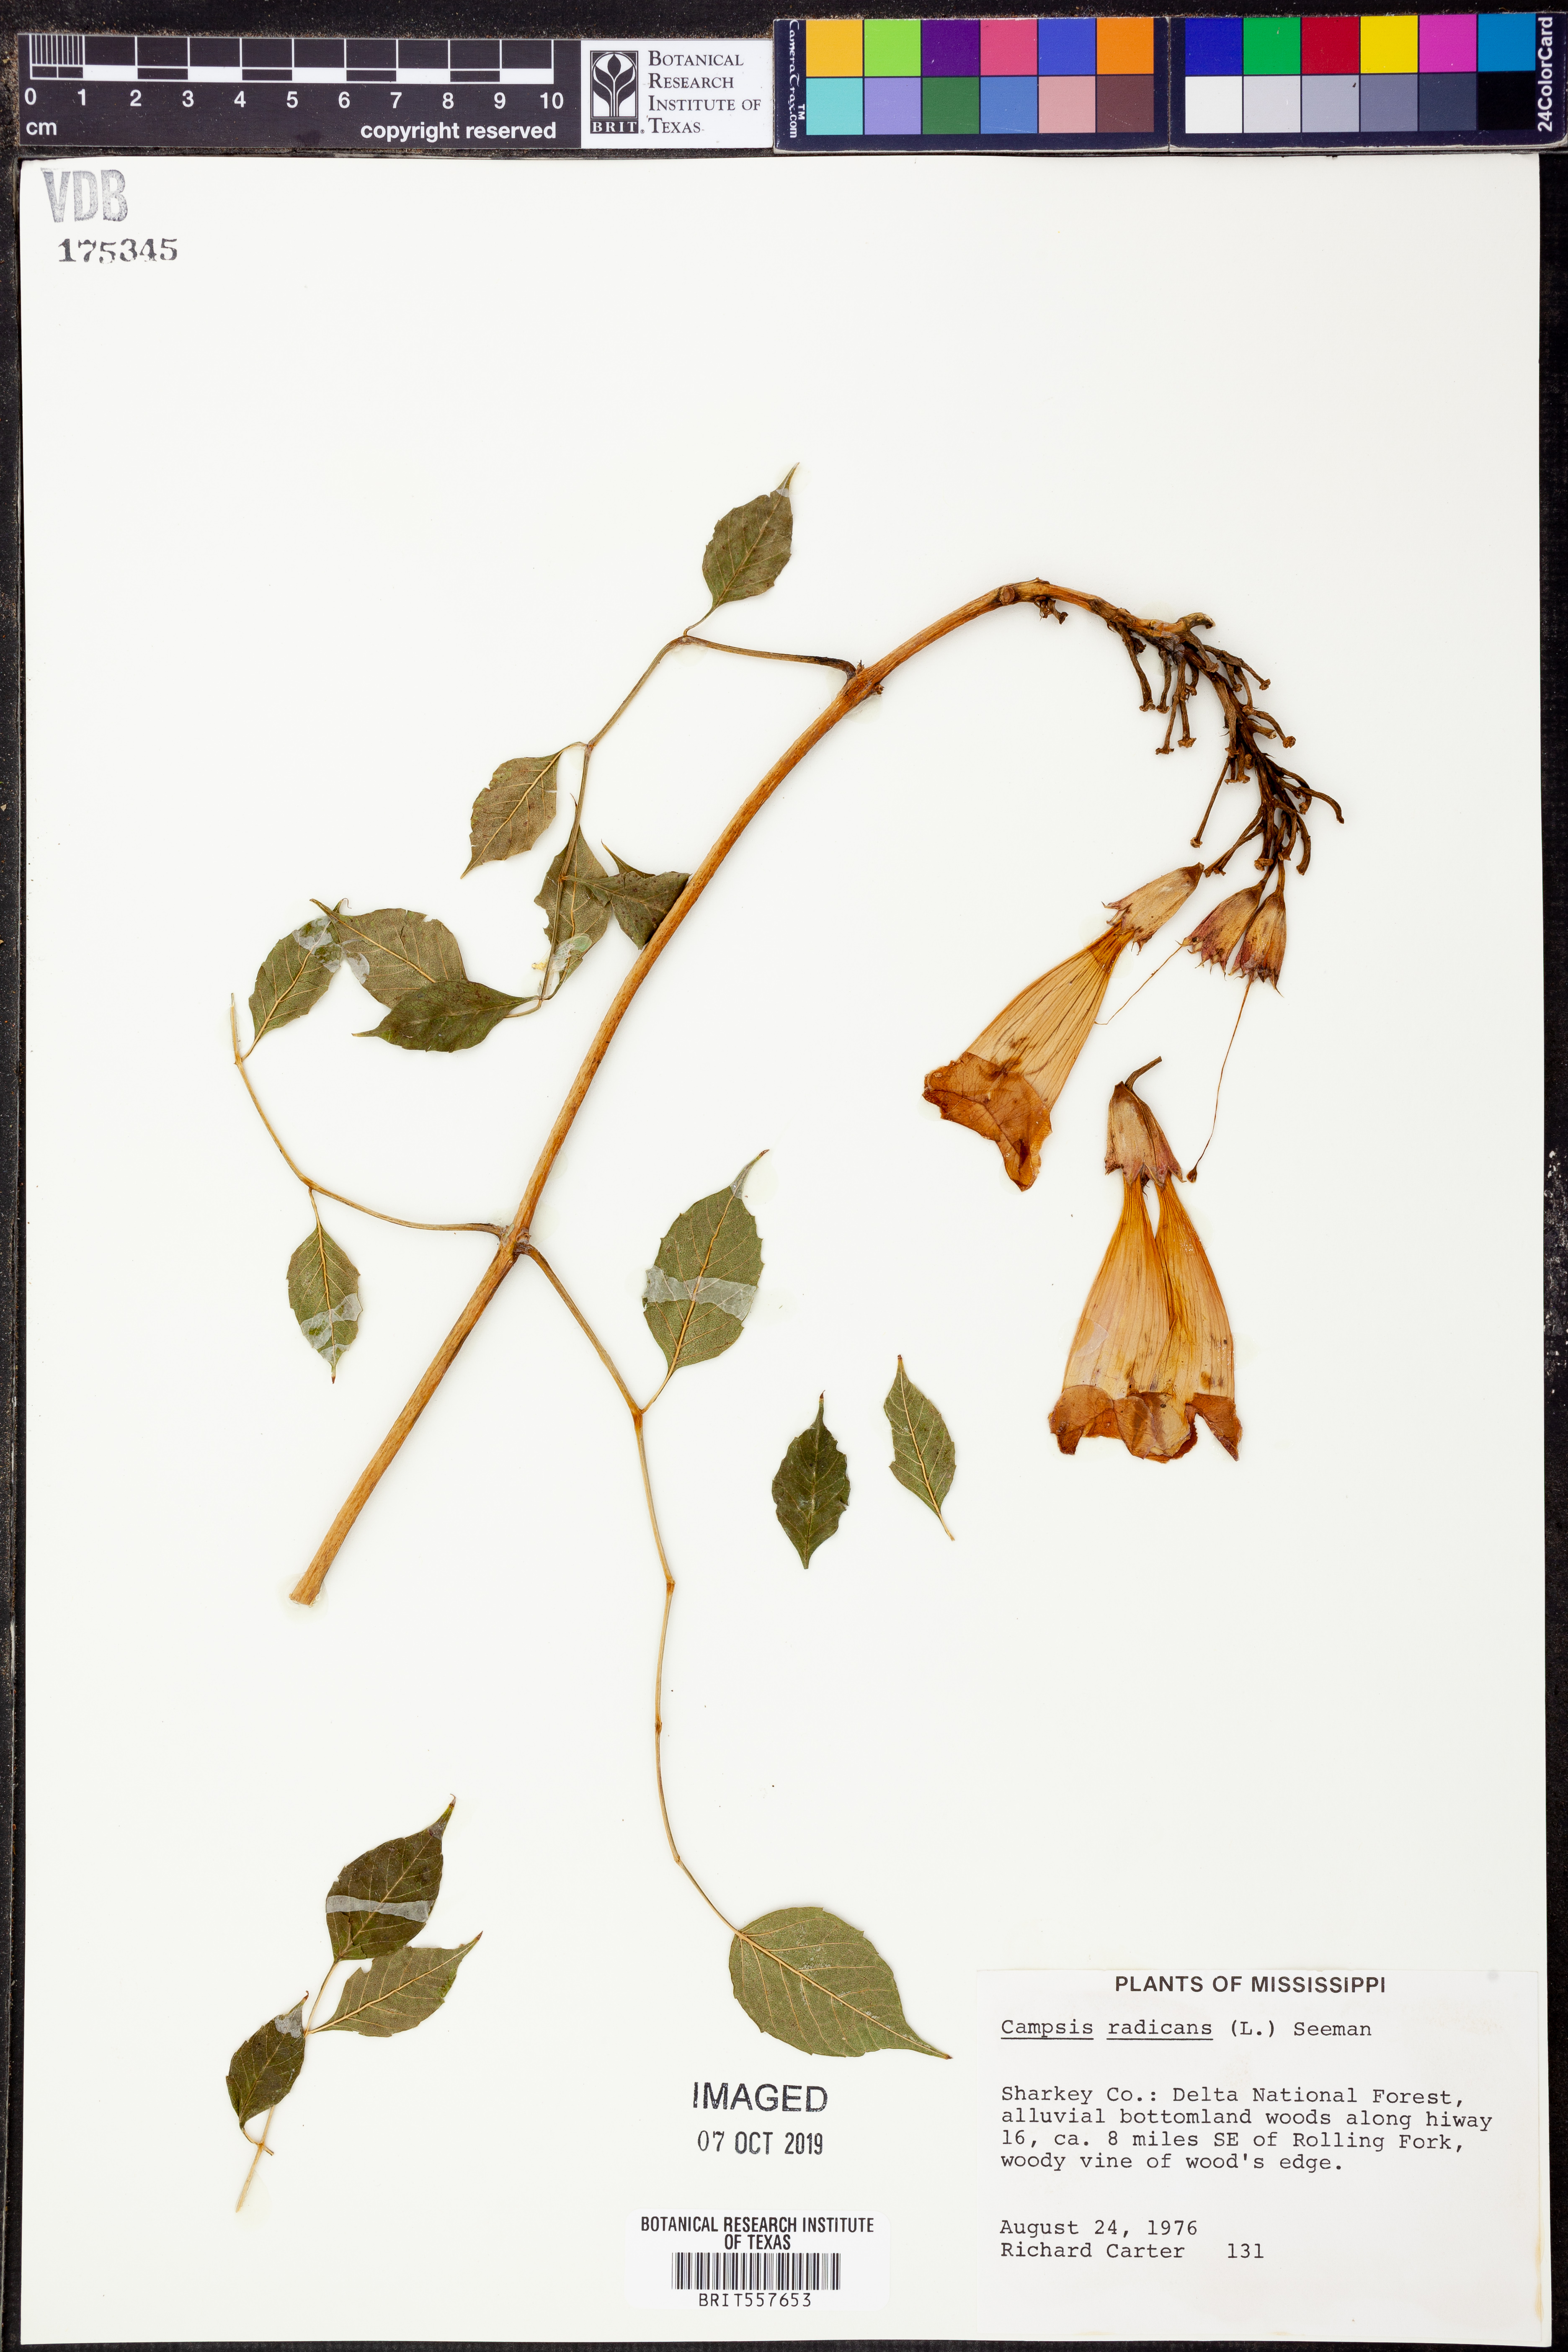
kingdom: Plantae
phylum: Tracheophyta
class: Magnoliopsida
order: Lamiales
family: Bignoniaceae
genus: Campsis
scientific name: Campsis radicans
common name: Trumpet-creeper
